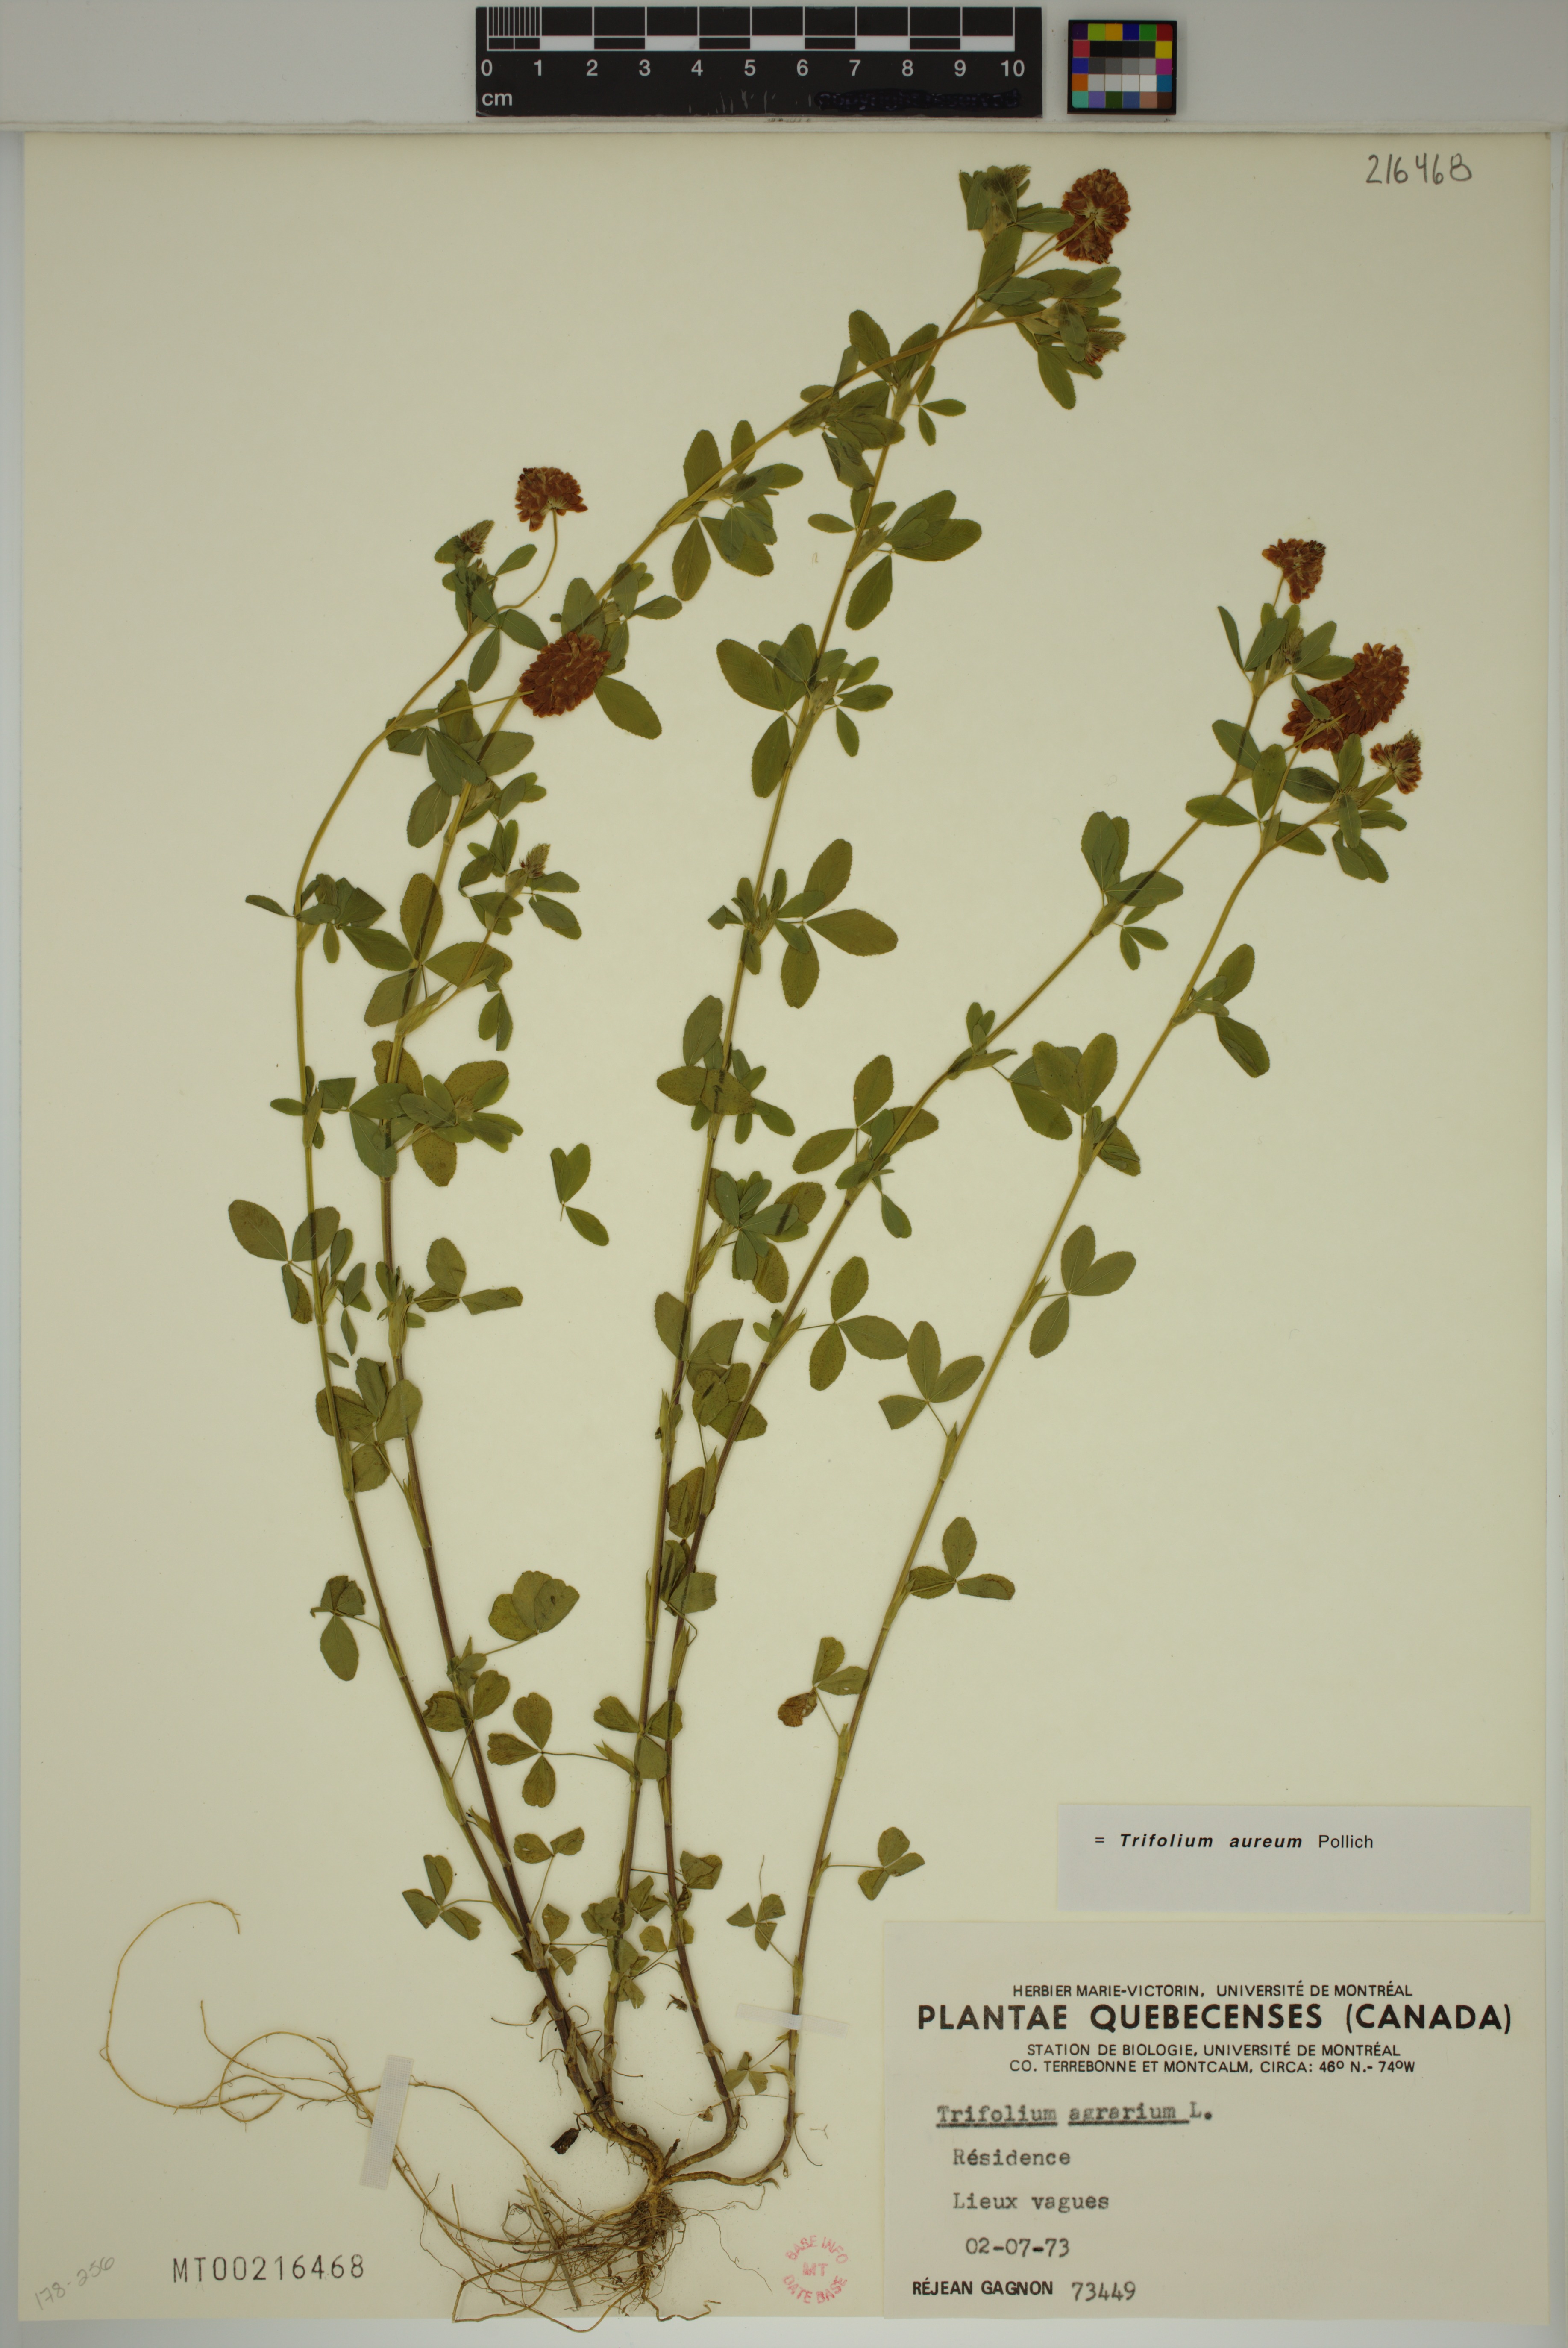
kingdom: Plantae
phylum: Tracheophyta
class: Magnoliopsida
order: Fabales
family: Fabaceae
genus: Trifolium
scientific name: Trifolium aureum
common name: Golden clover
